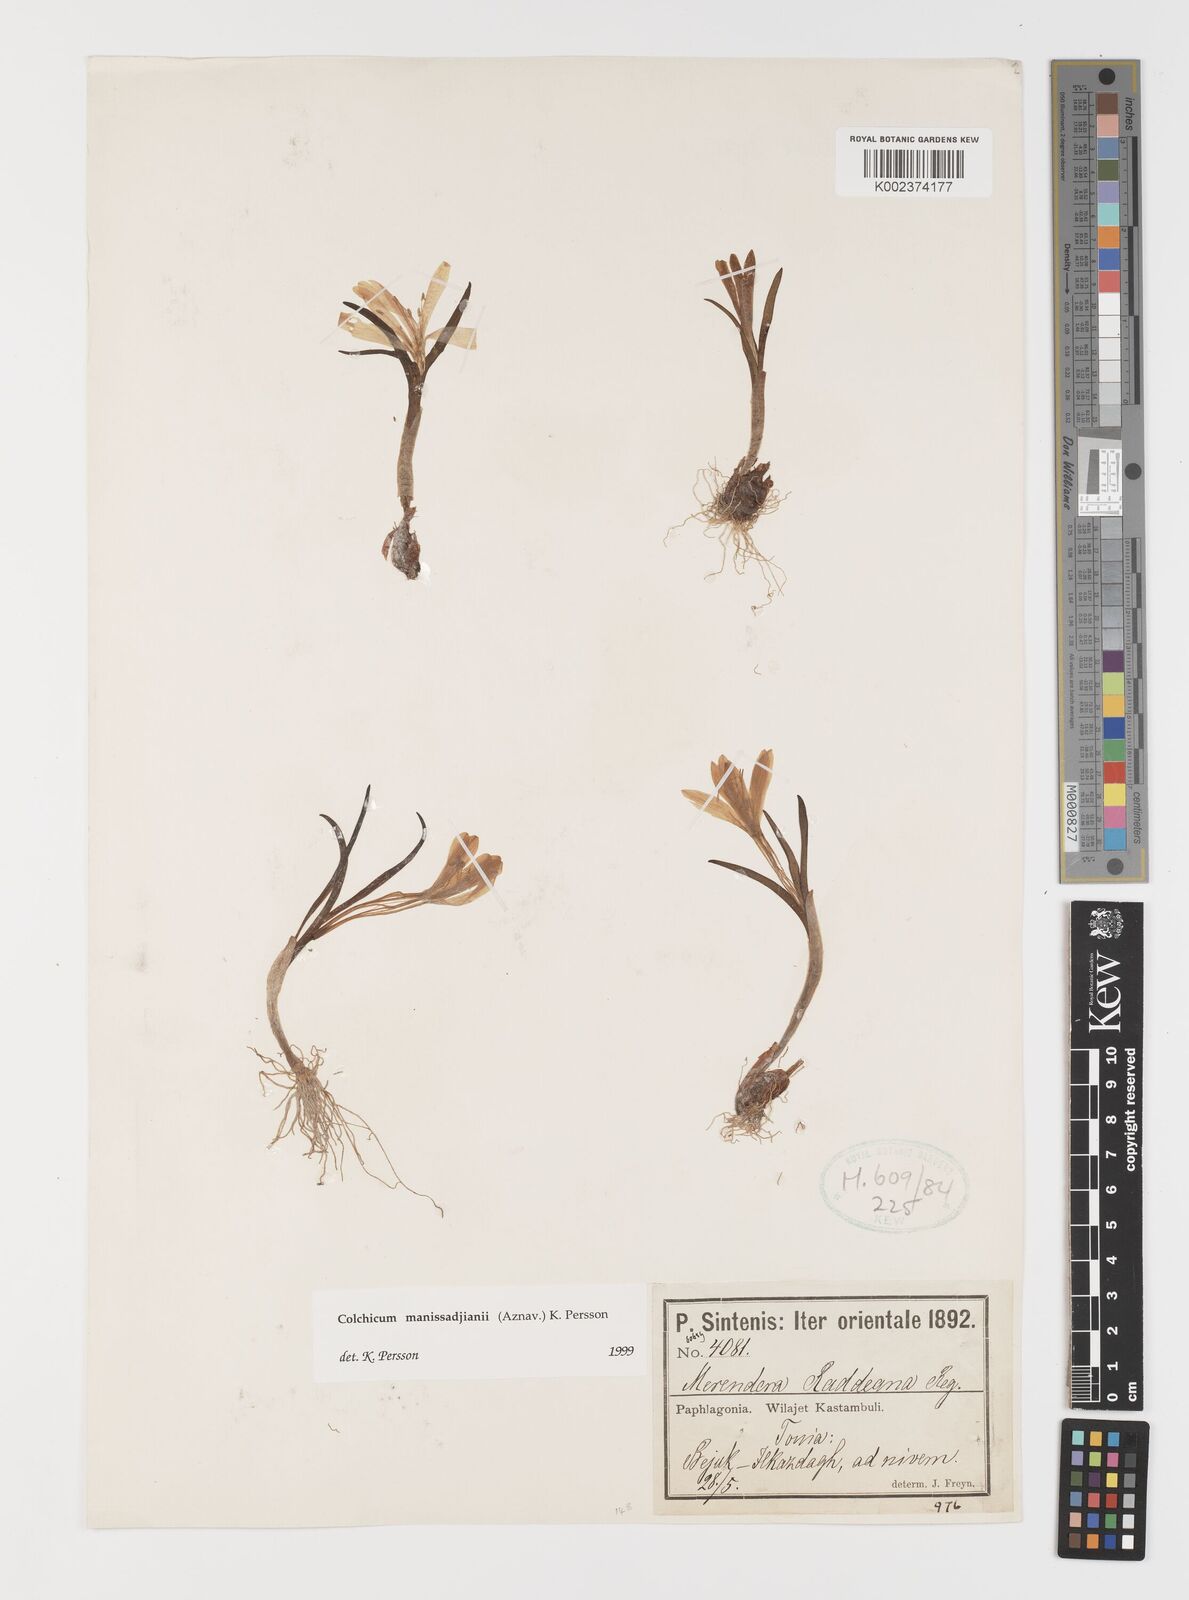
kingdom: Plantae
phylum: Tracheophyta
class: Liliopsida
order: Liliales
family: Colchicaceae
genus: Colchicum
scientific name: Colchicum manissadjianii
